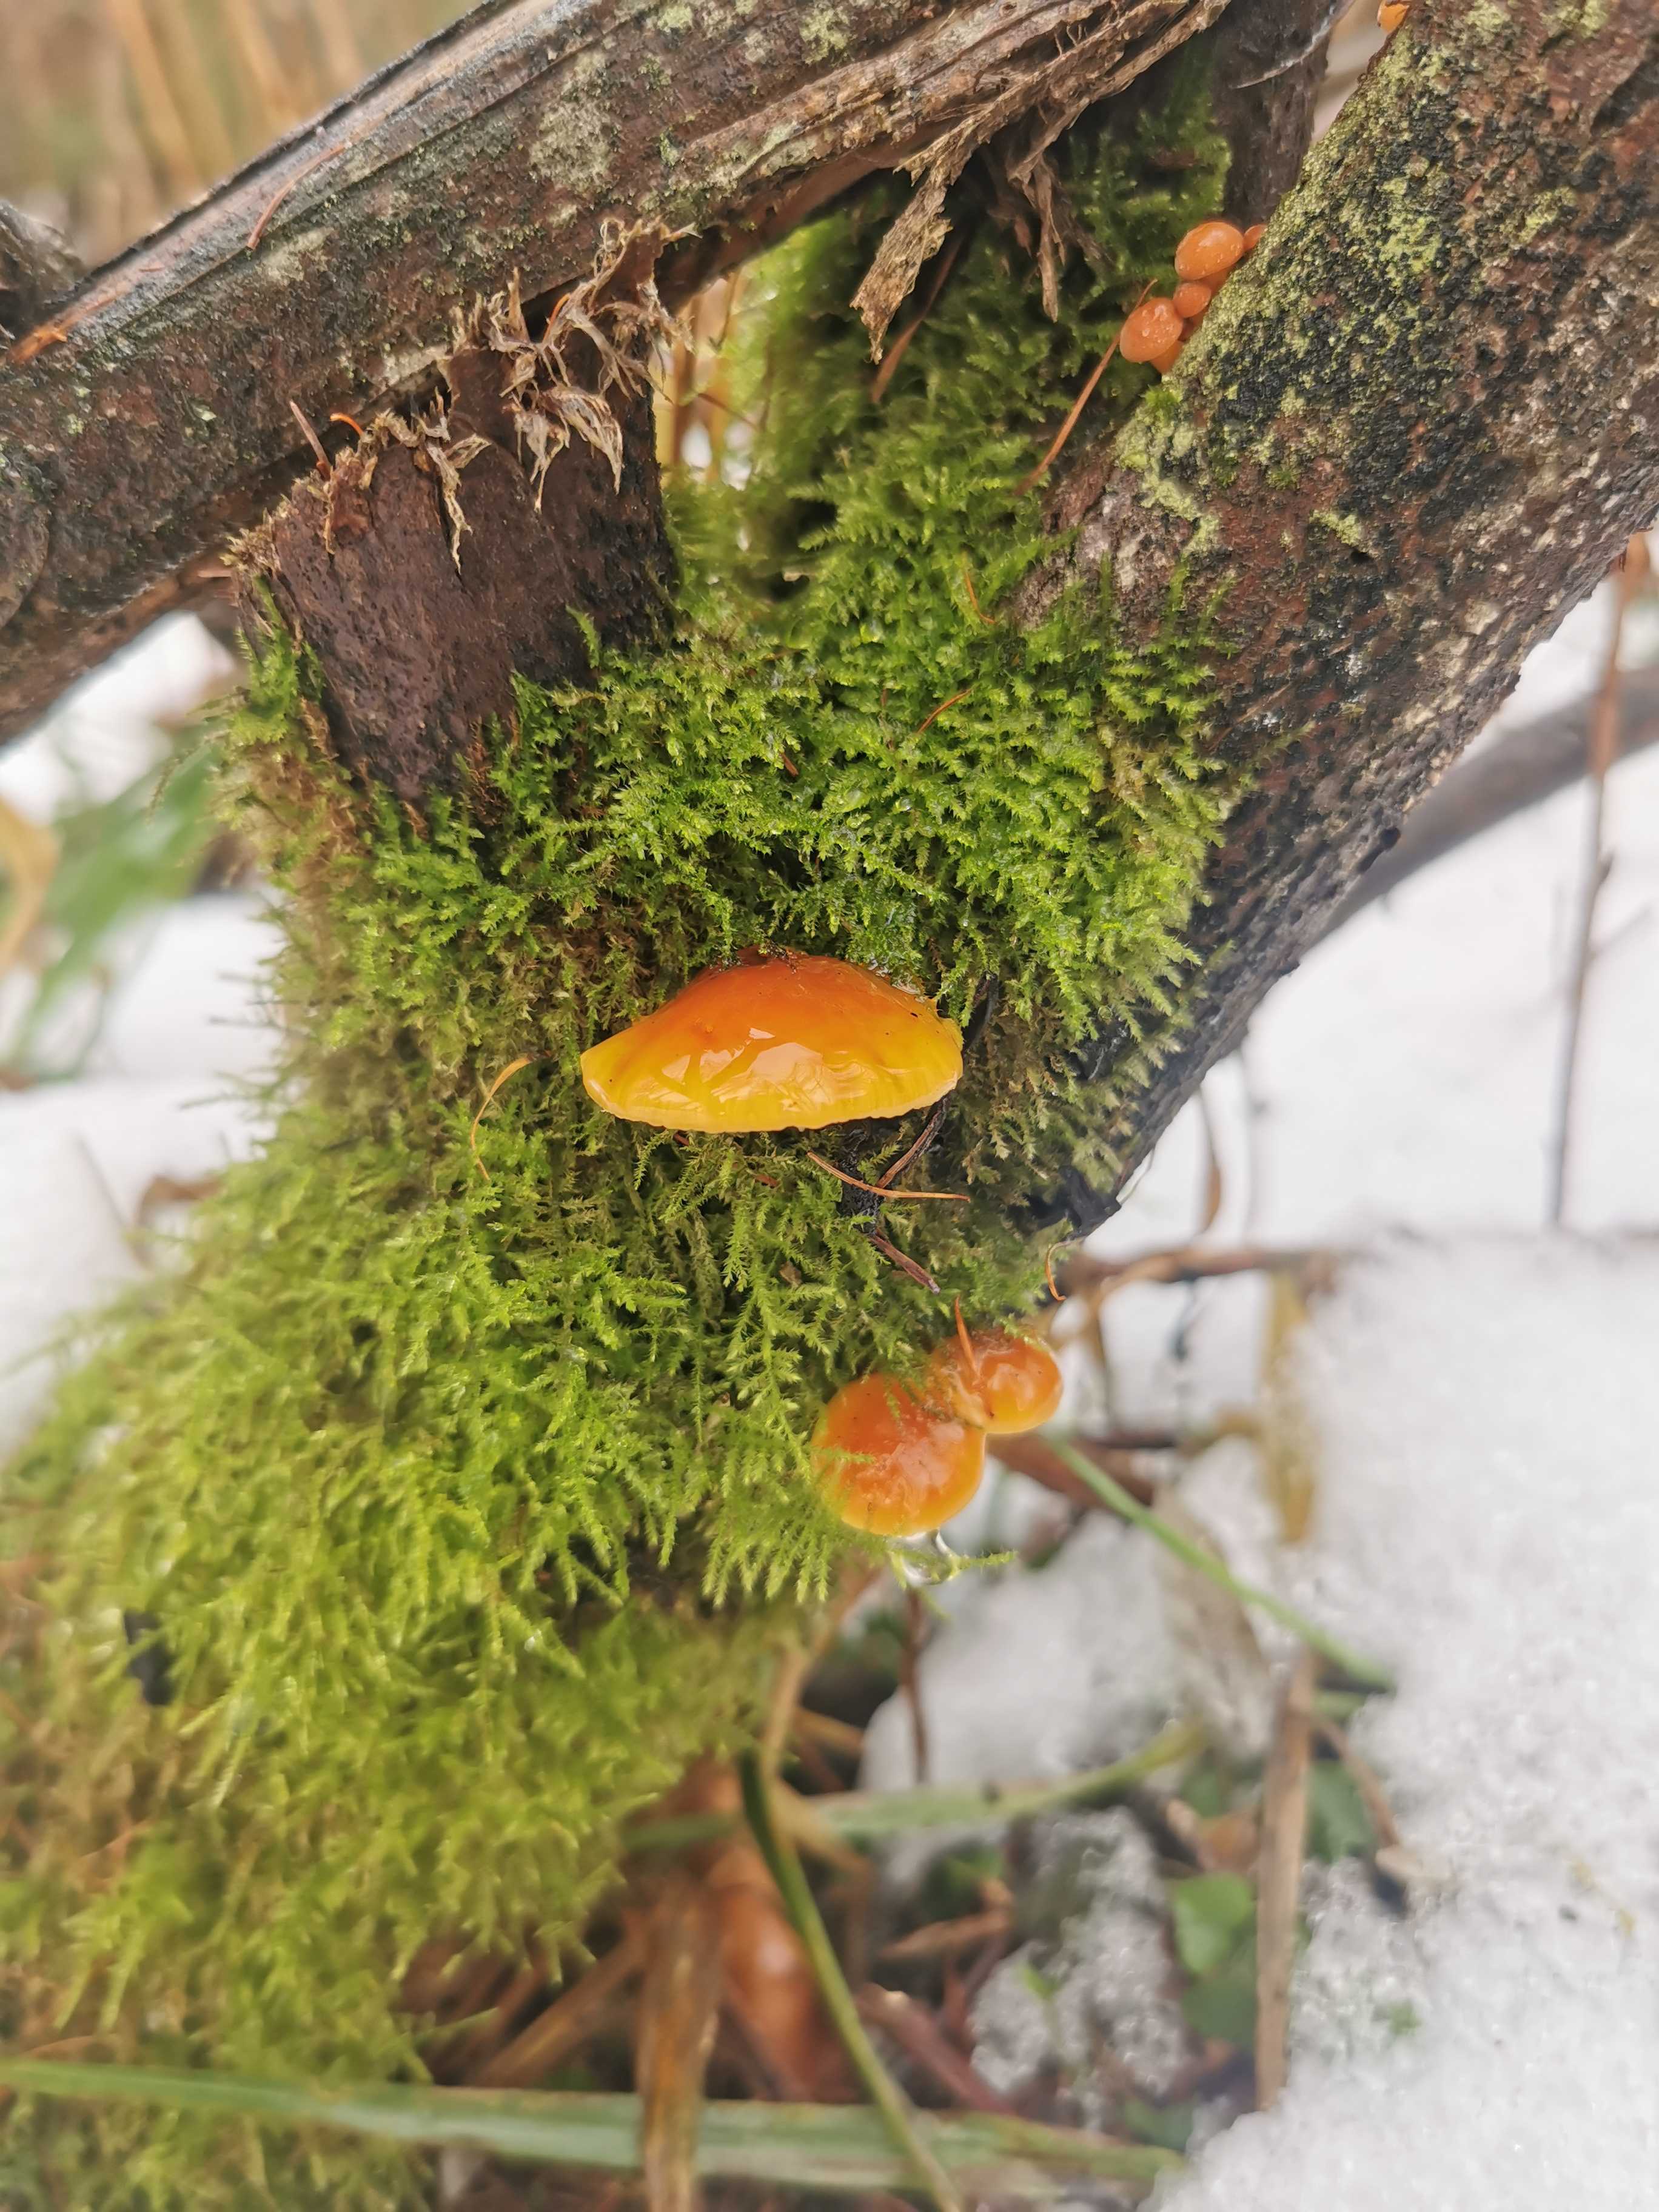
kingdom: Fungi
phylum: Basidiomycota
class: Agaricomycetes
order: Agaricales
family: Physalacriaceae
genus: Flammulina
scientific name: Flammulina
